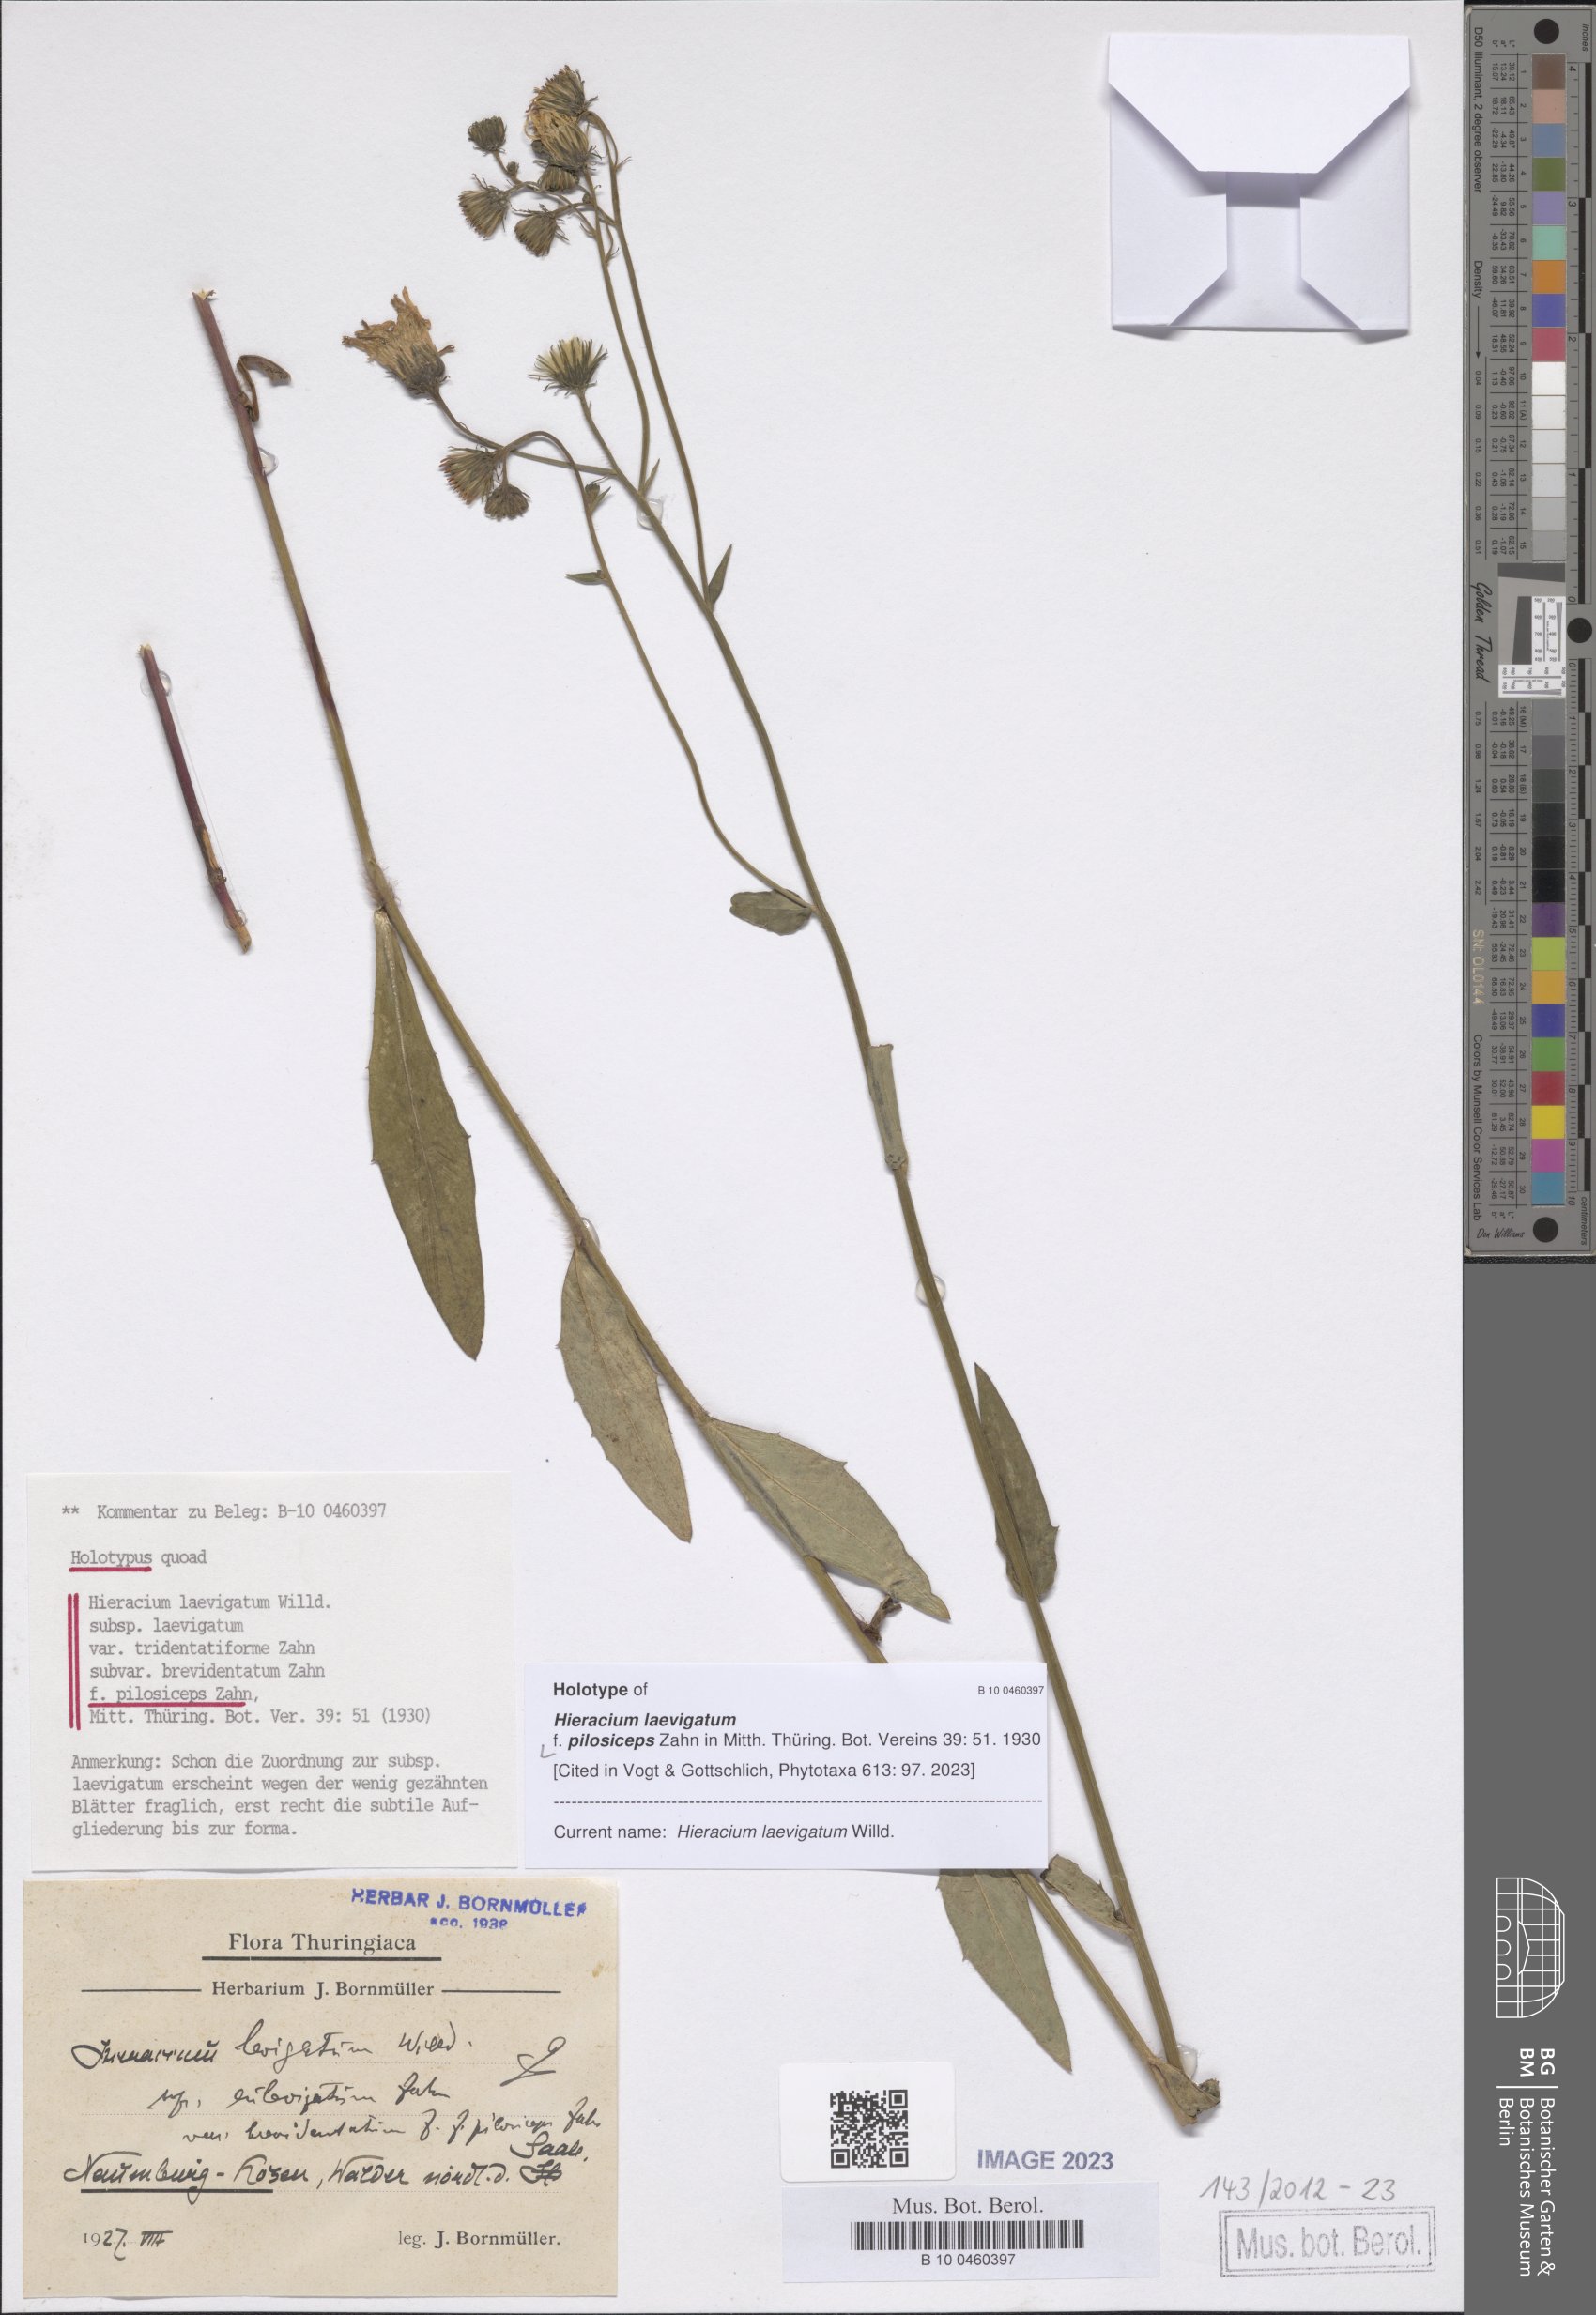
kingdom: Plantae
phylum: Tracheophyta
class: Magnoliopsida
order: Asterales
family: Asteraceae
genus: Hieracium
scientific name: Hieracium laevigatum
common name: Smooth hawkweed
